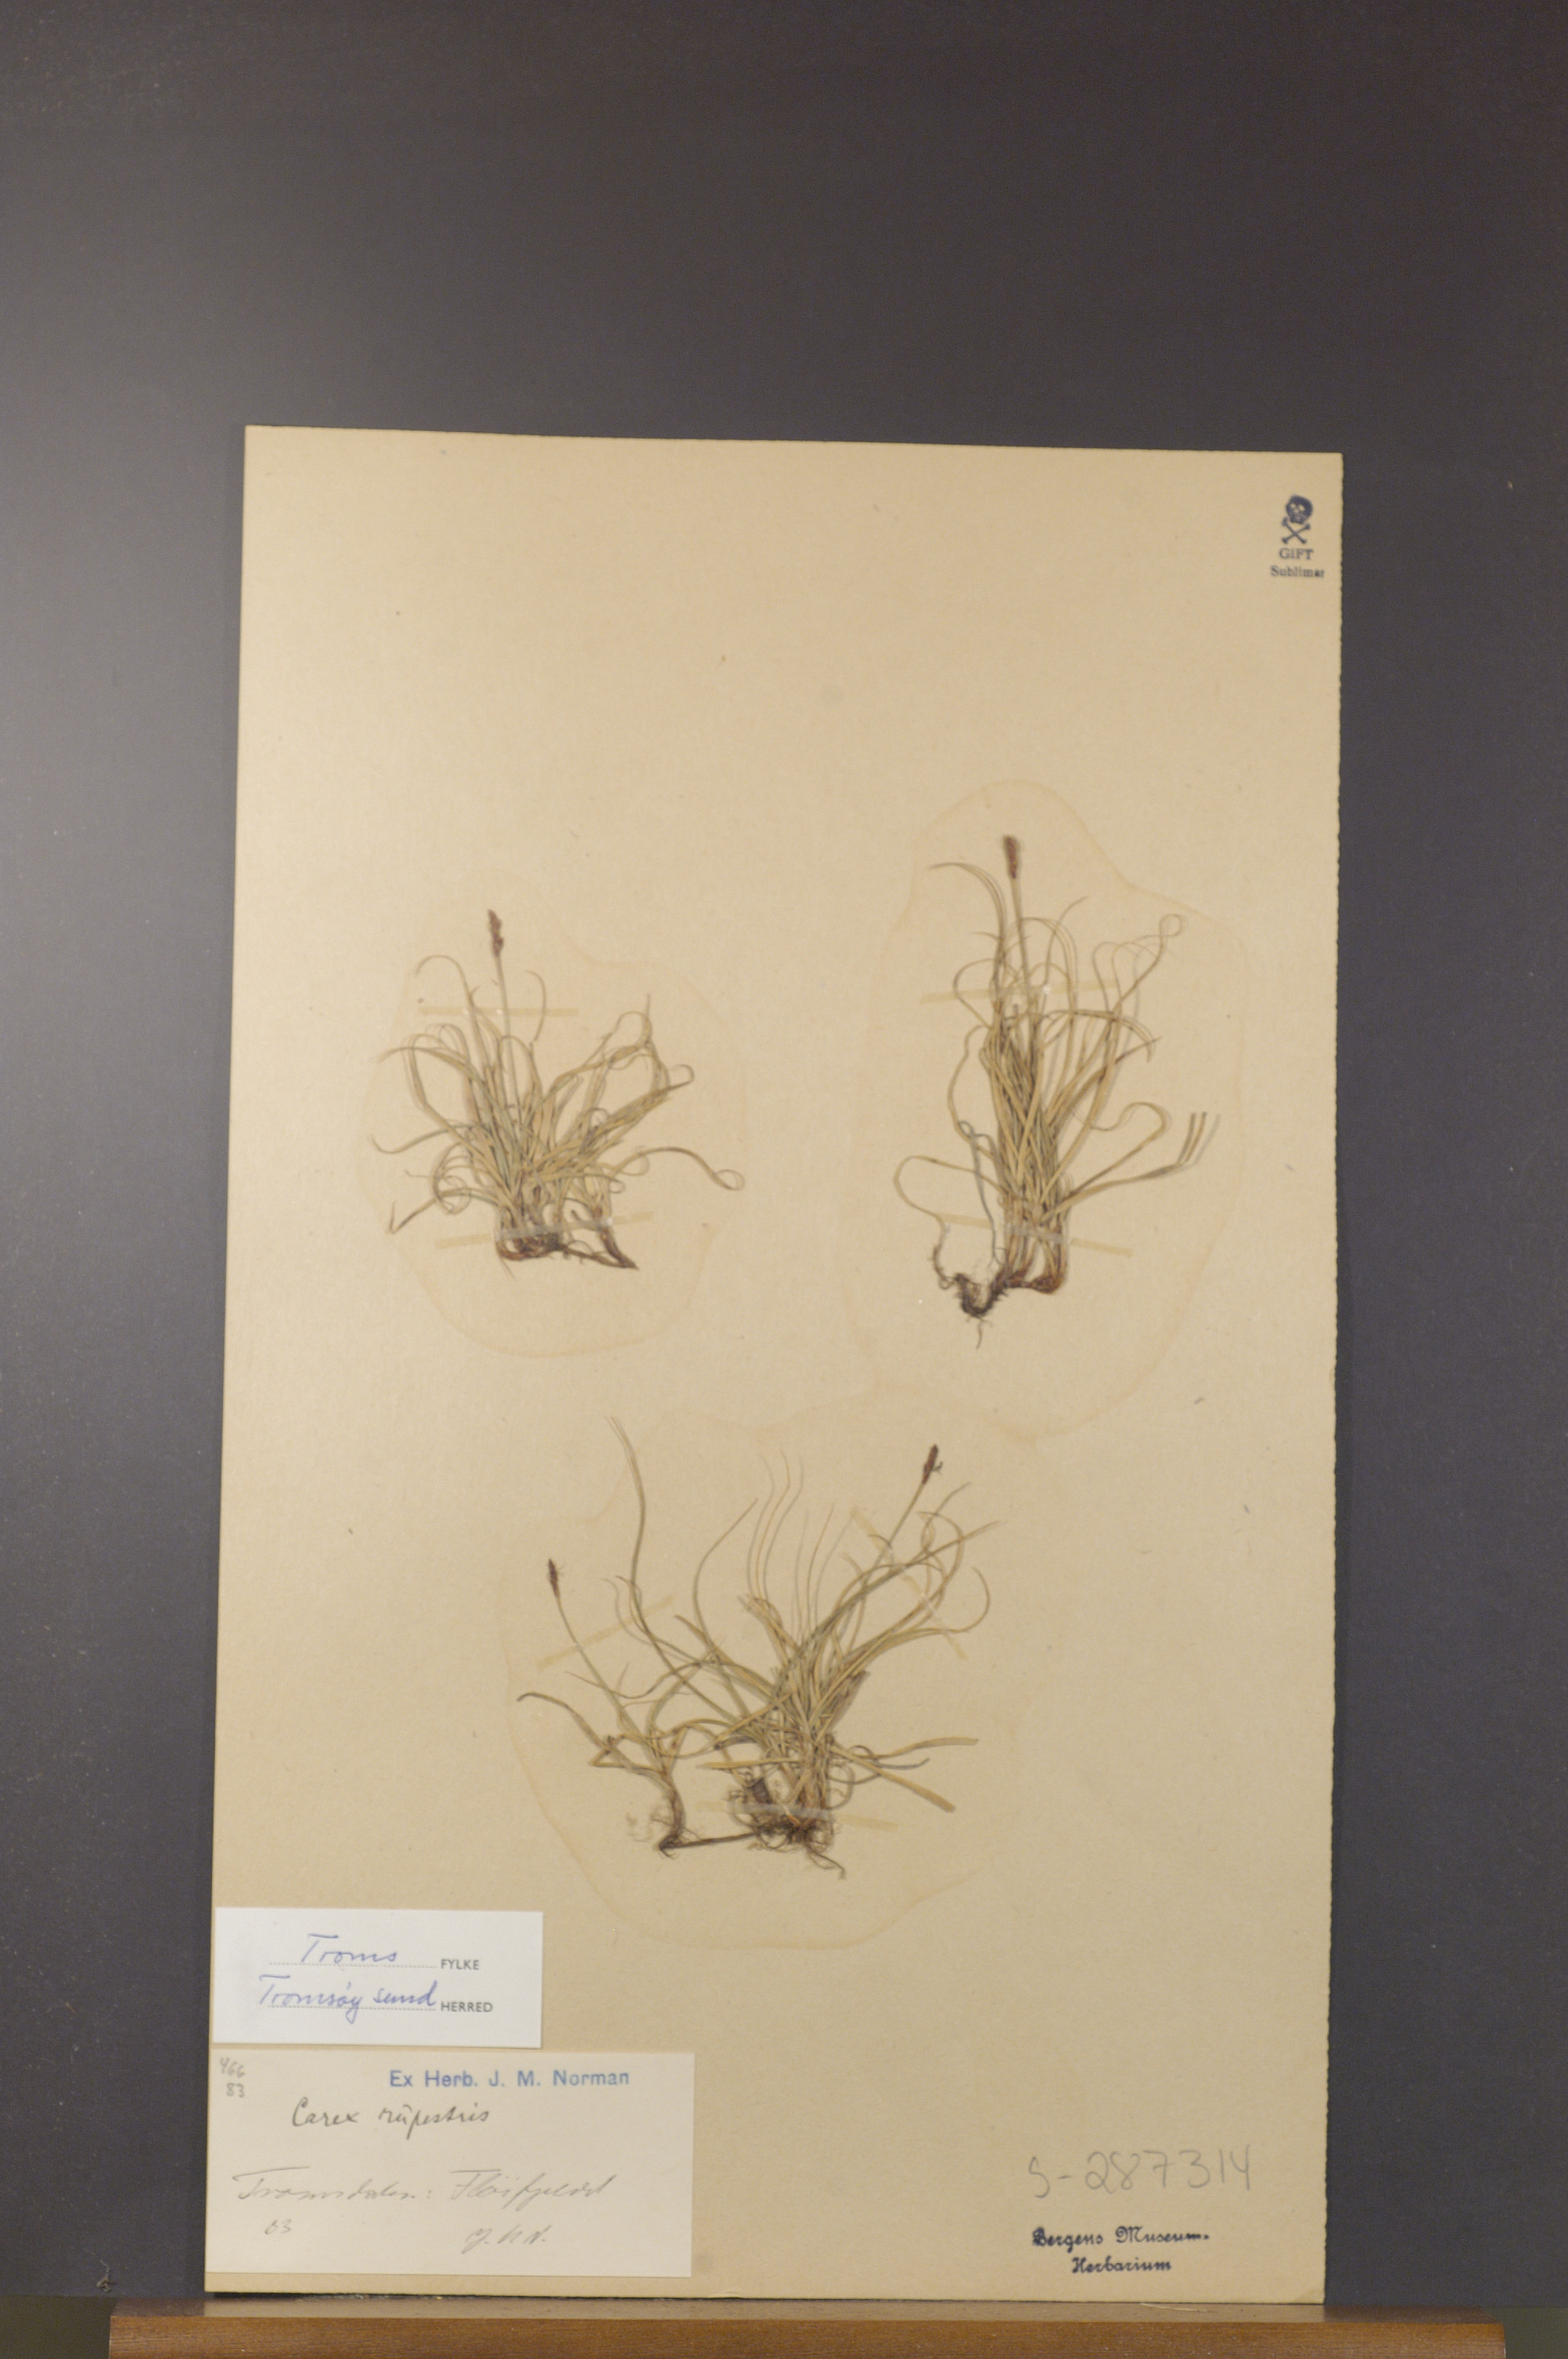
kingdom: Plantae
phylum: Tracheophyta
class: Liliopsida
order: Poales
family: Cyperaceae
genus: Carex
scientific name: Carex rupestris
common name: Rock sedge
